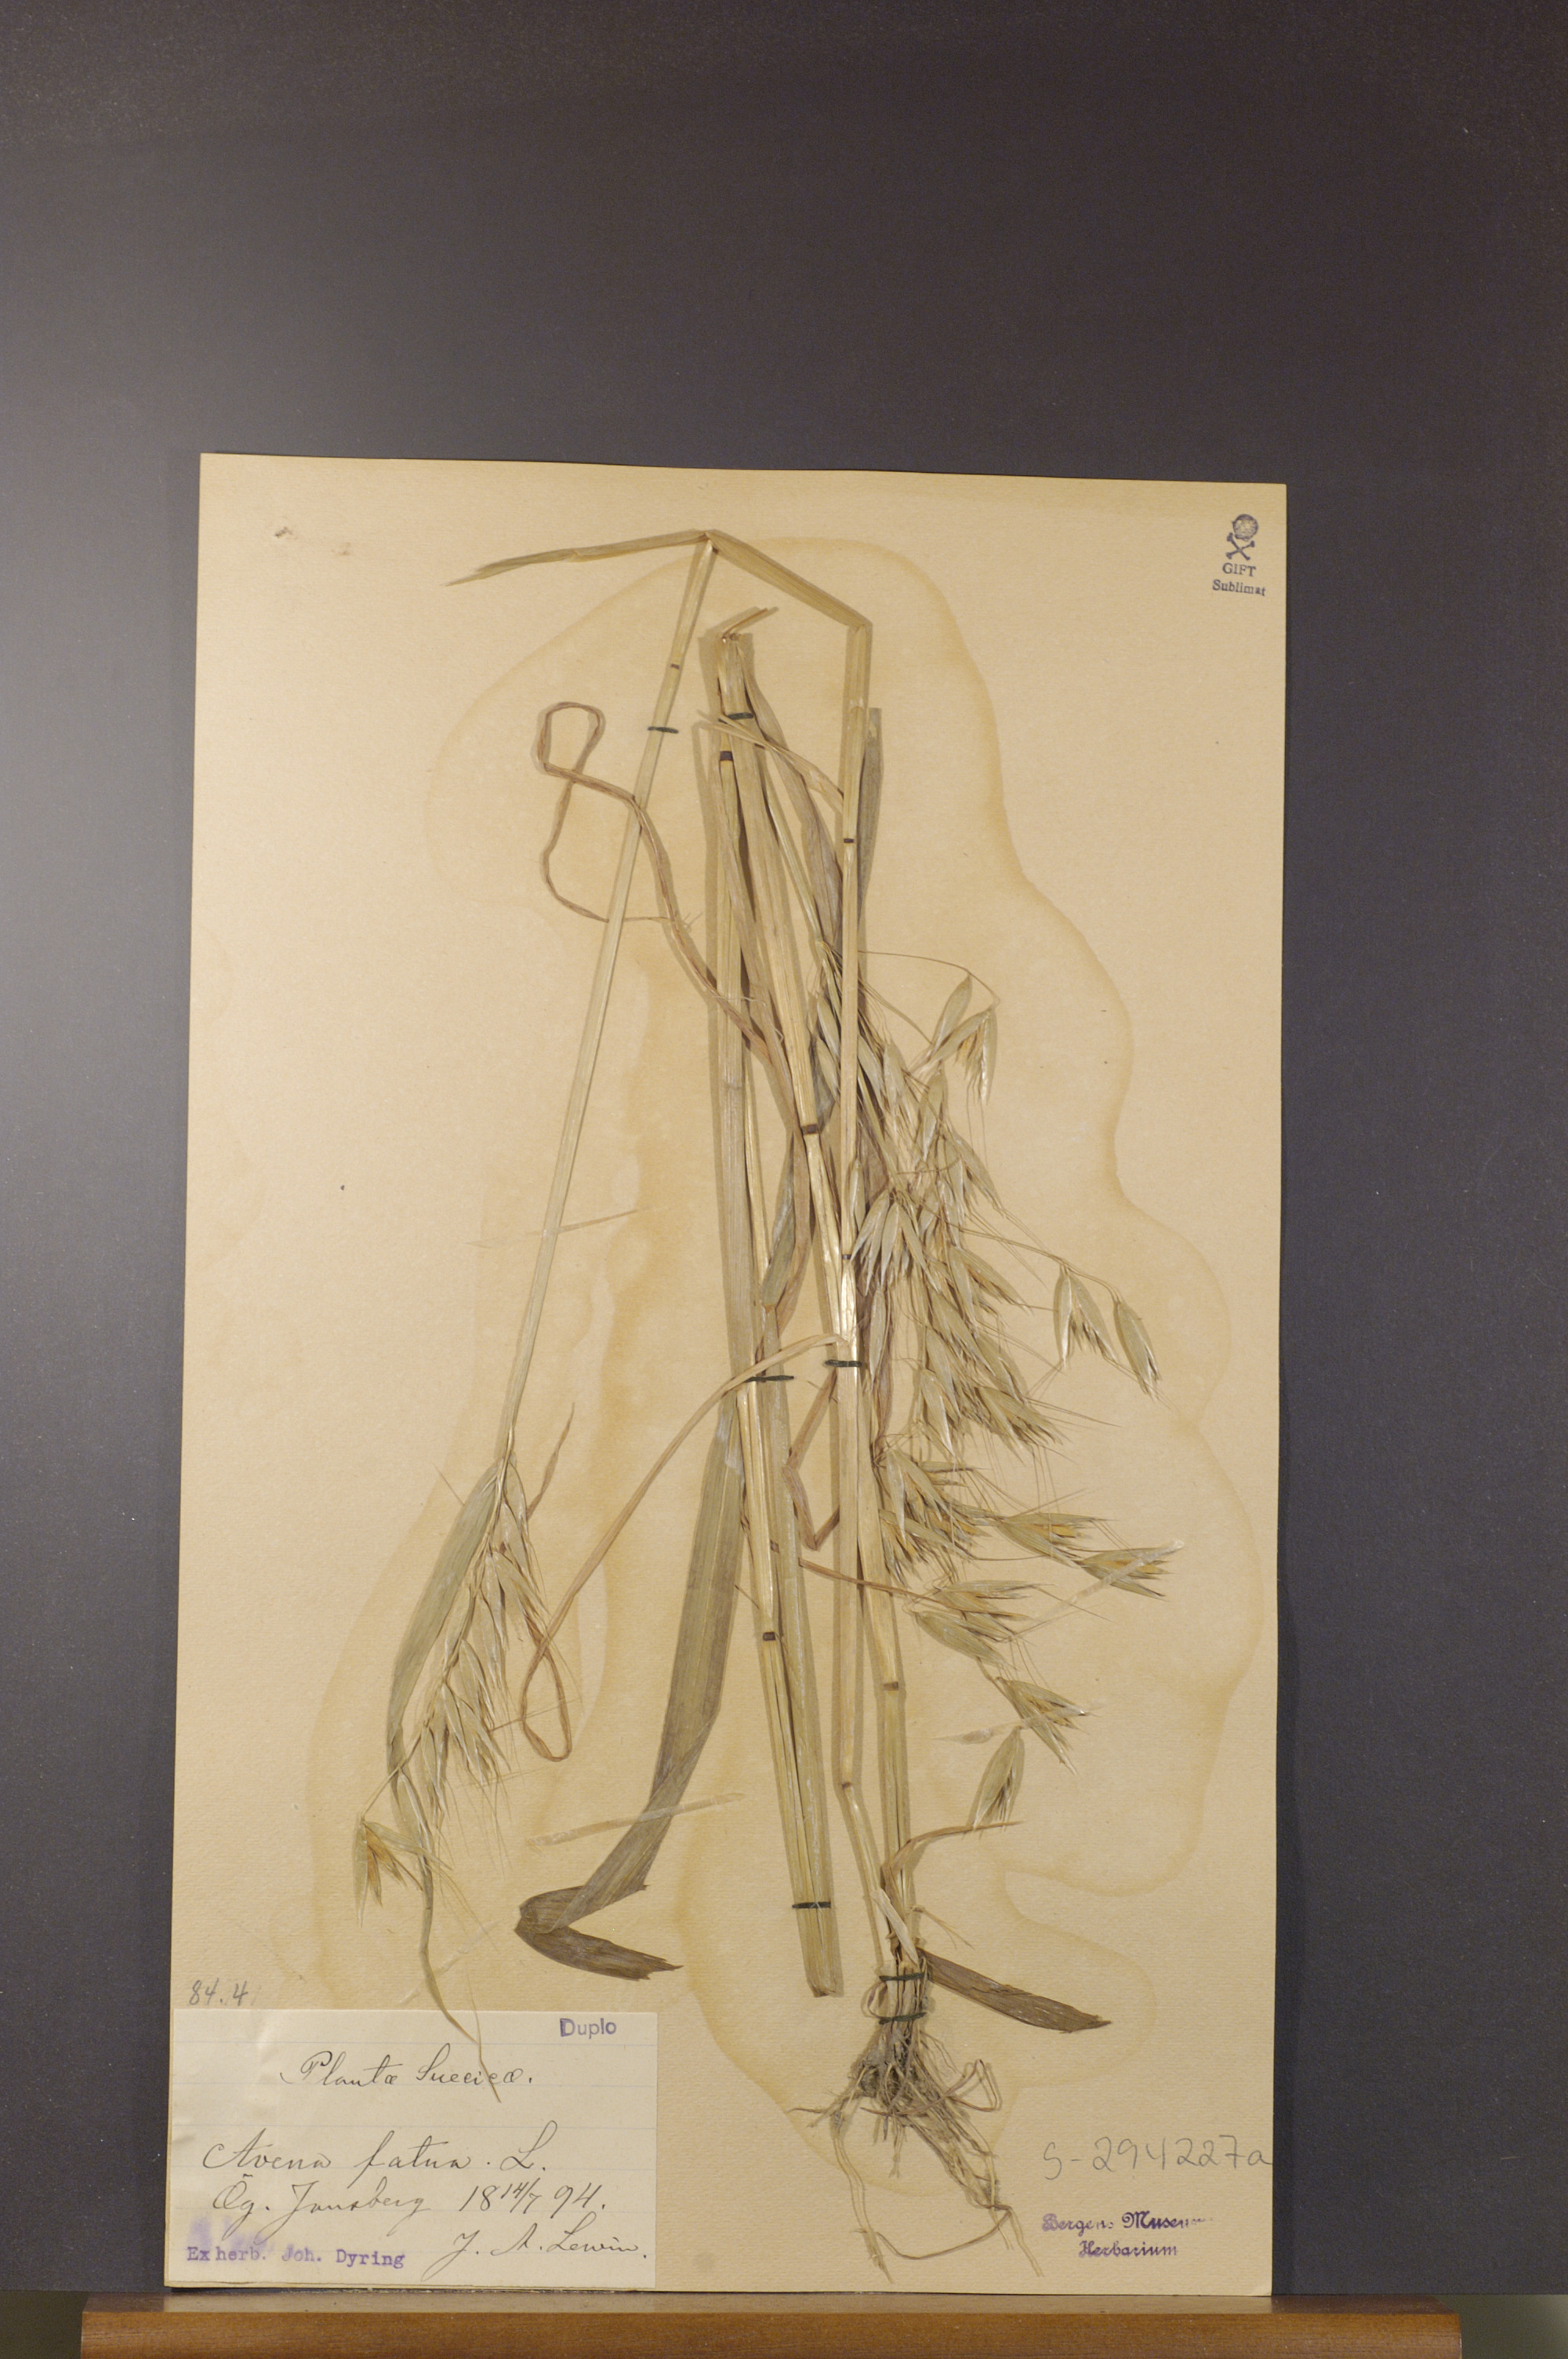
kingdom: Plantae
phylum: Tracheophyta
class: Liliopsida
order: Poales
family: Poaceae
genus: Avena
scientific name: Avena fatua
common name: Wild oat
